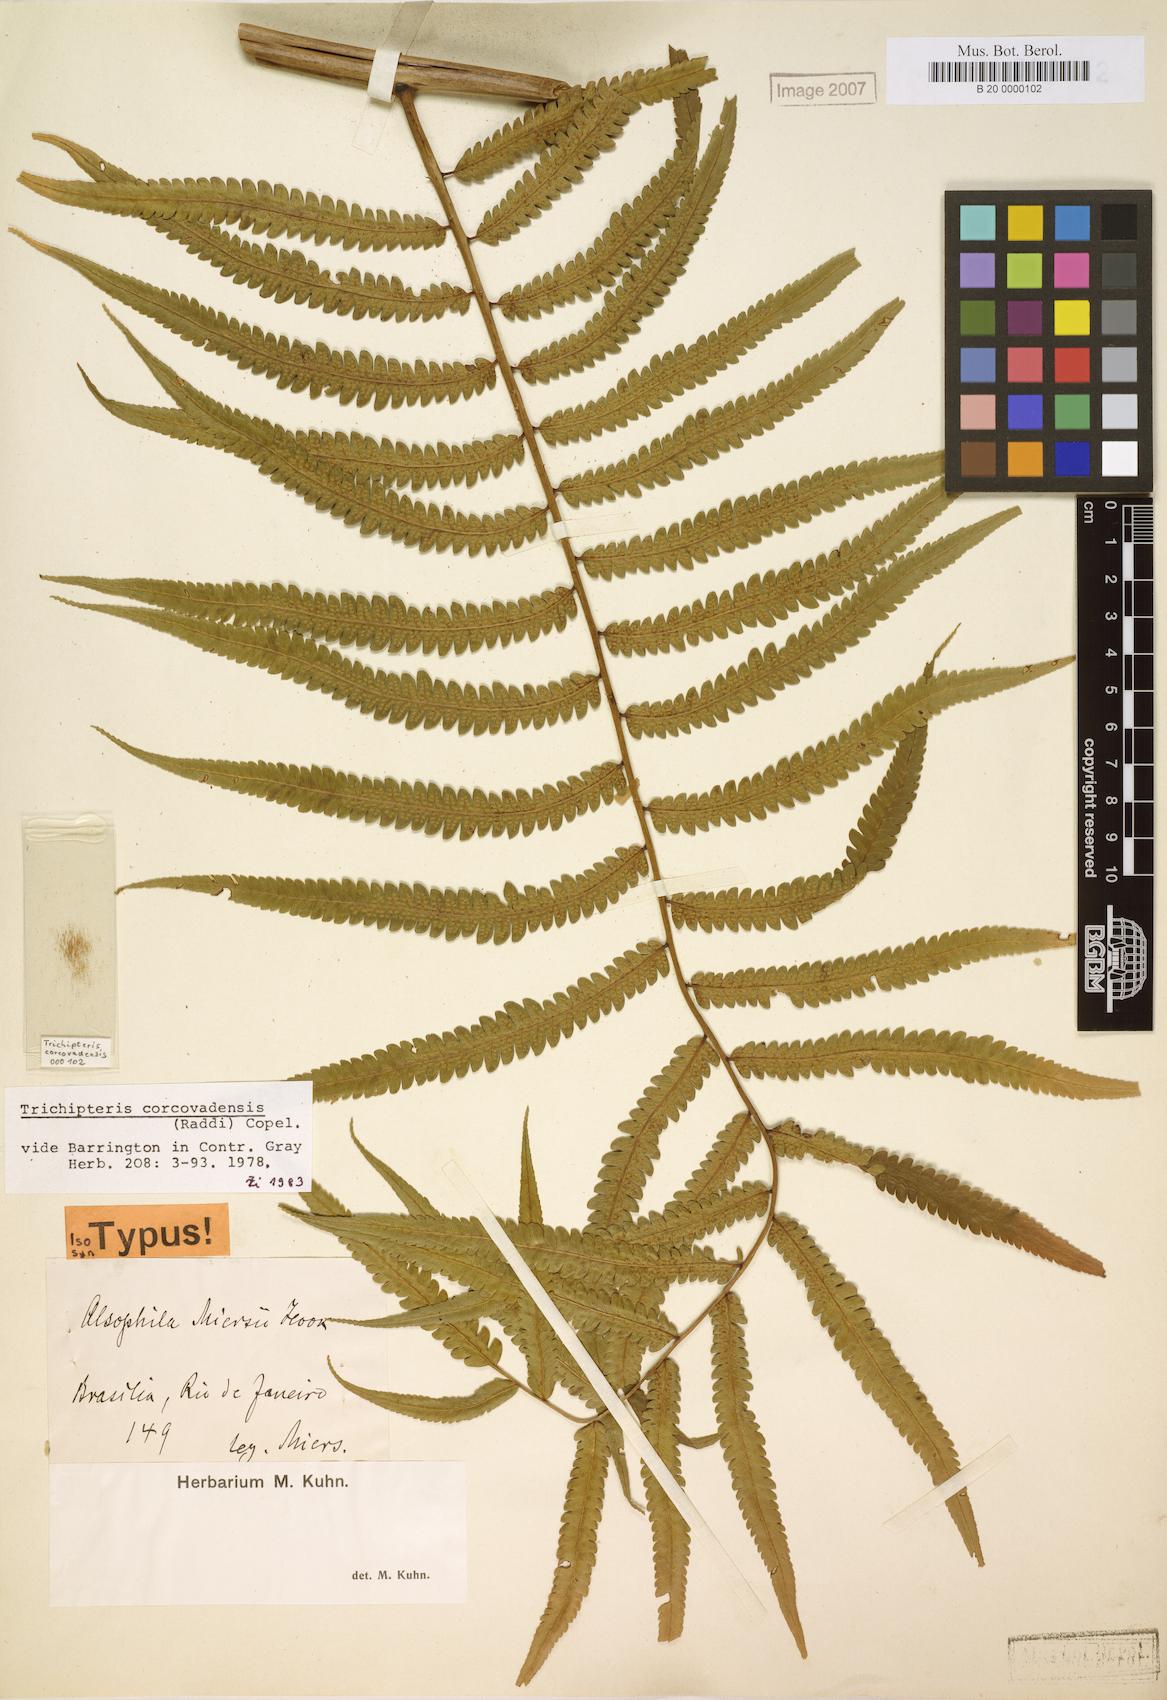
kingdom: Plantae
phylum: Tracheophyta
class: Polypodiopsida
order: Cyatheales
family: Cyatheaceae
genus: Cyathea
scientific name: Cyathea corcovadensis
